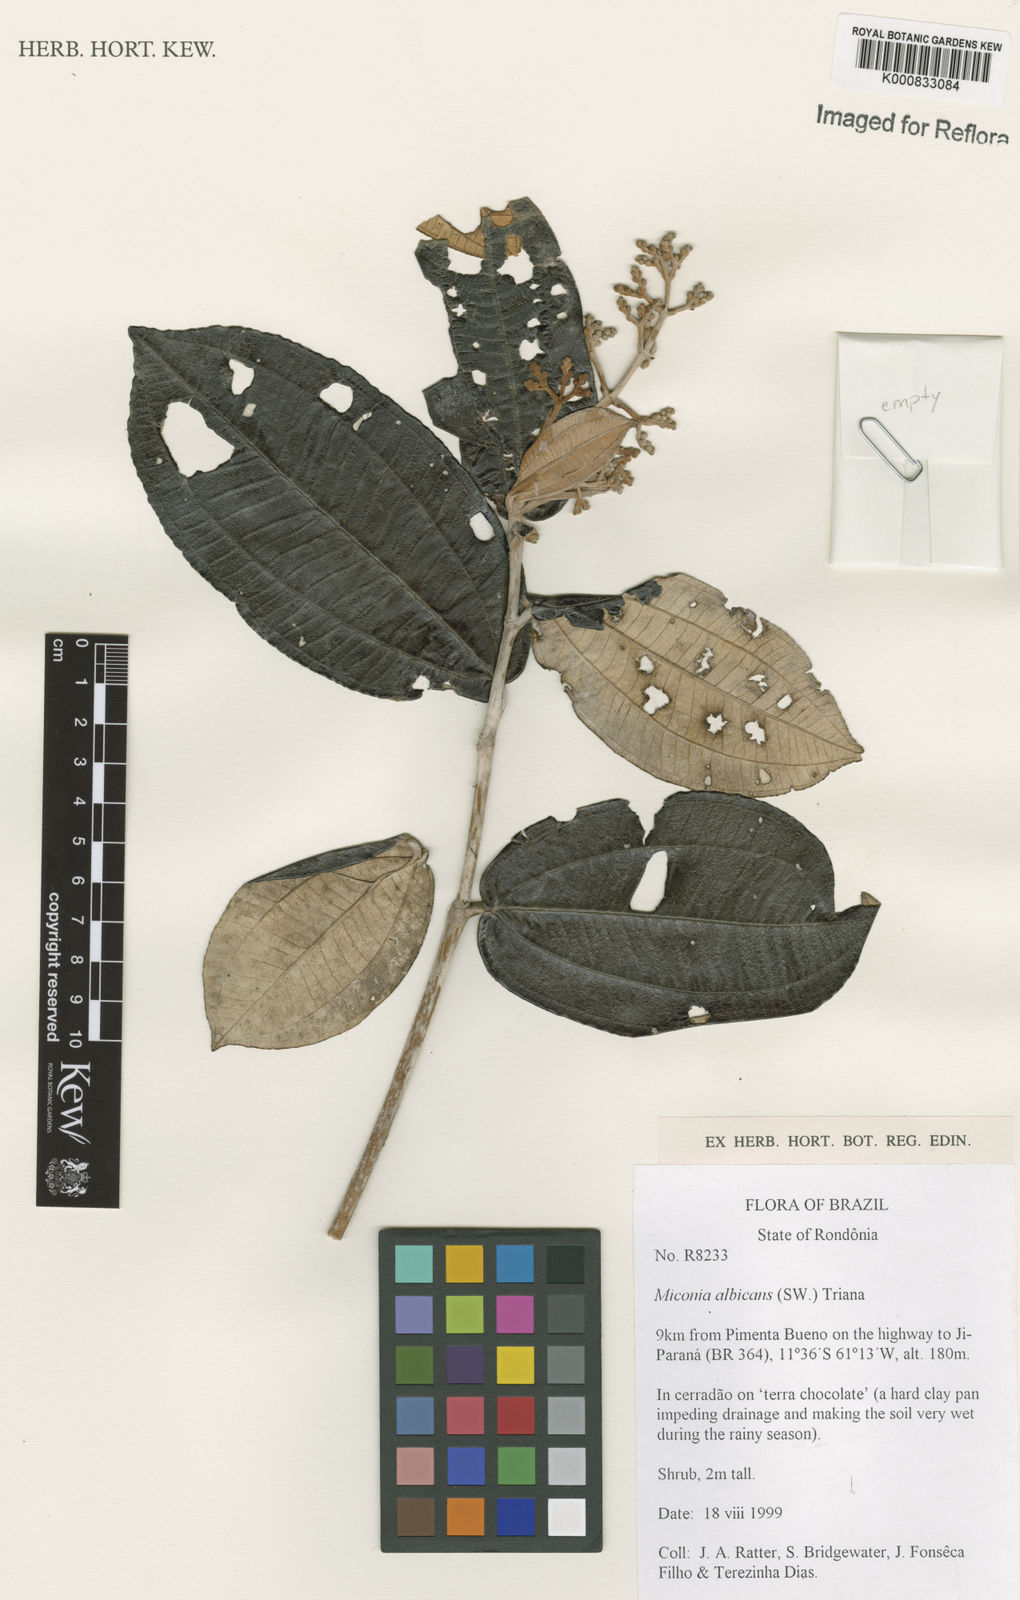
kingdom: Plantae
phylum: Tracheophyta
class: Magnoliopsida
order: Myrtales
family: Melastomataceae
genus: Miconia
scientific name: Miconia albicans
